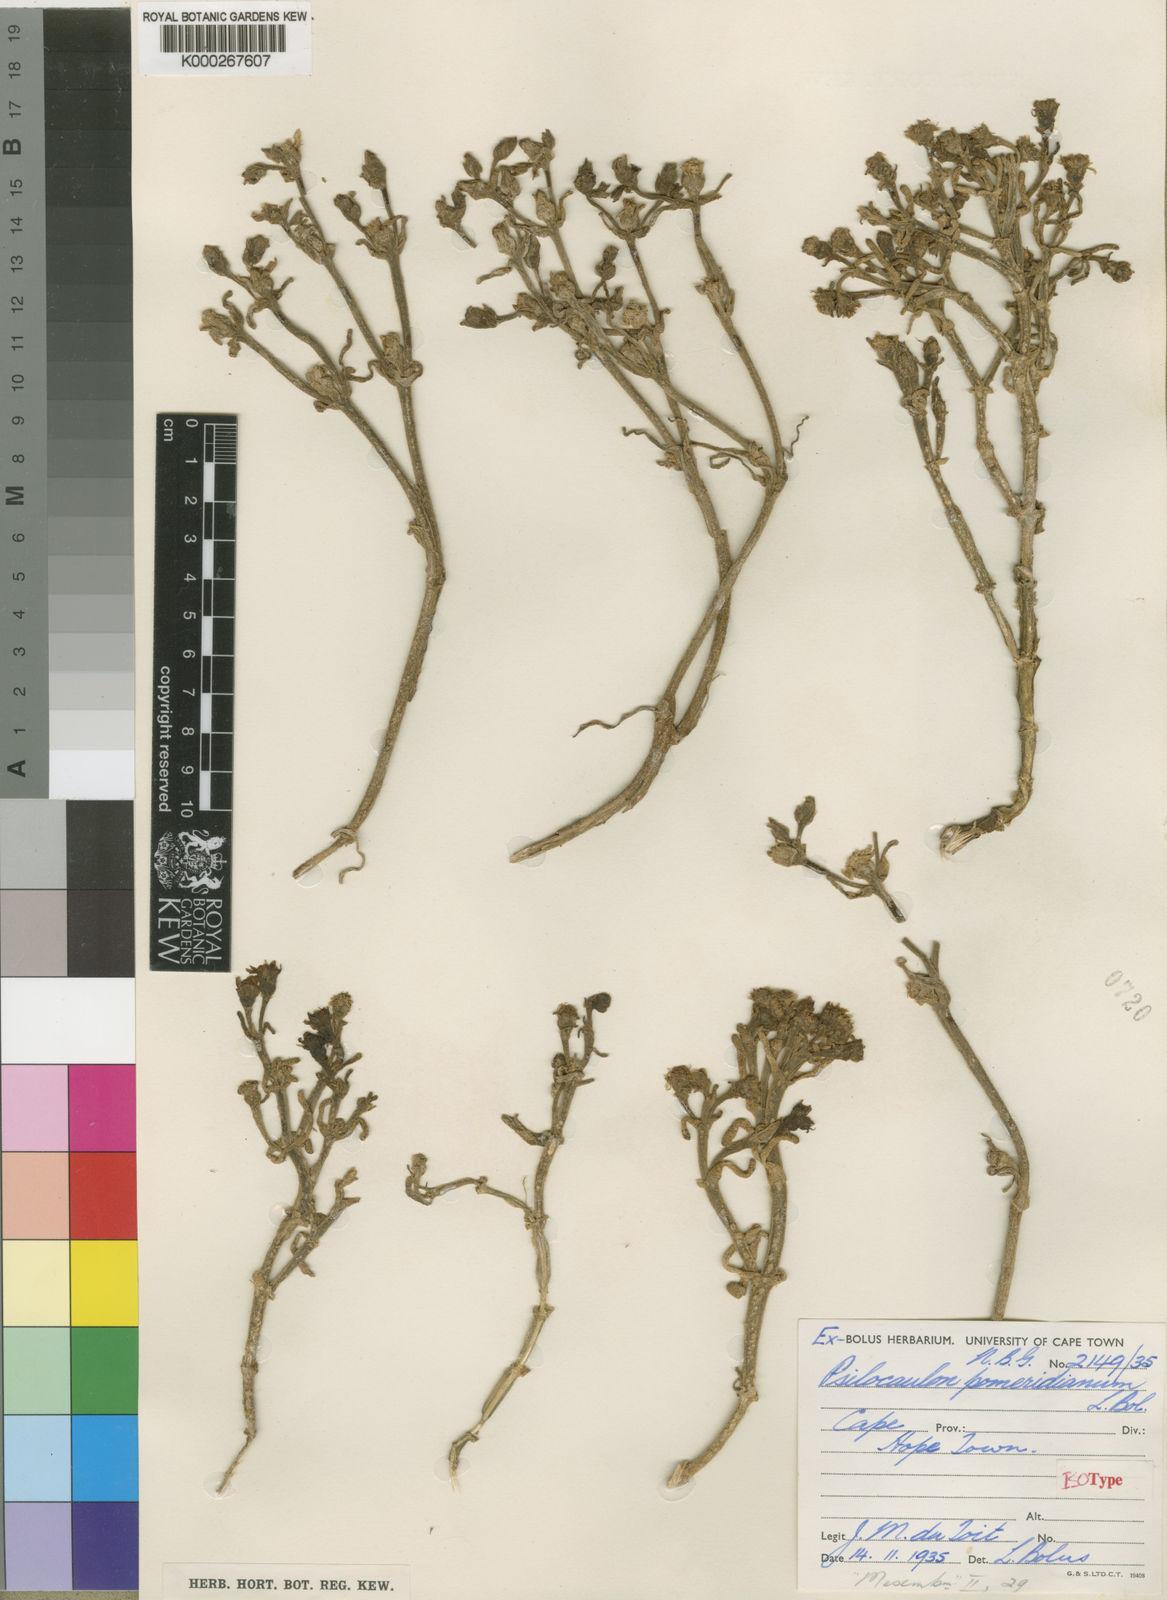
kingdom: Plantae
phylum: Tracheophyta
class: Magnoliopsida
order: Caryophyllales
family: Aizoaceae
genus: Mesembryanthemum
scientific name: Mesembryanthemum stenandrum
